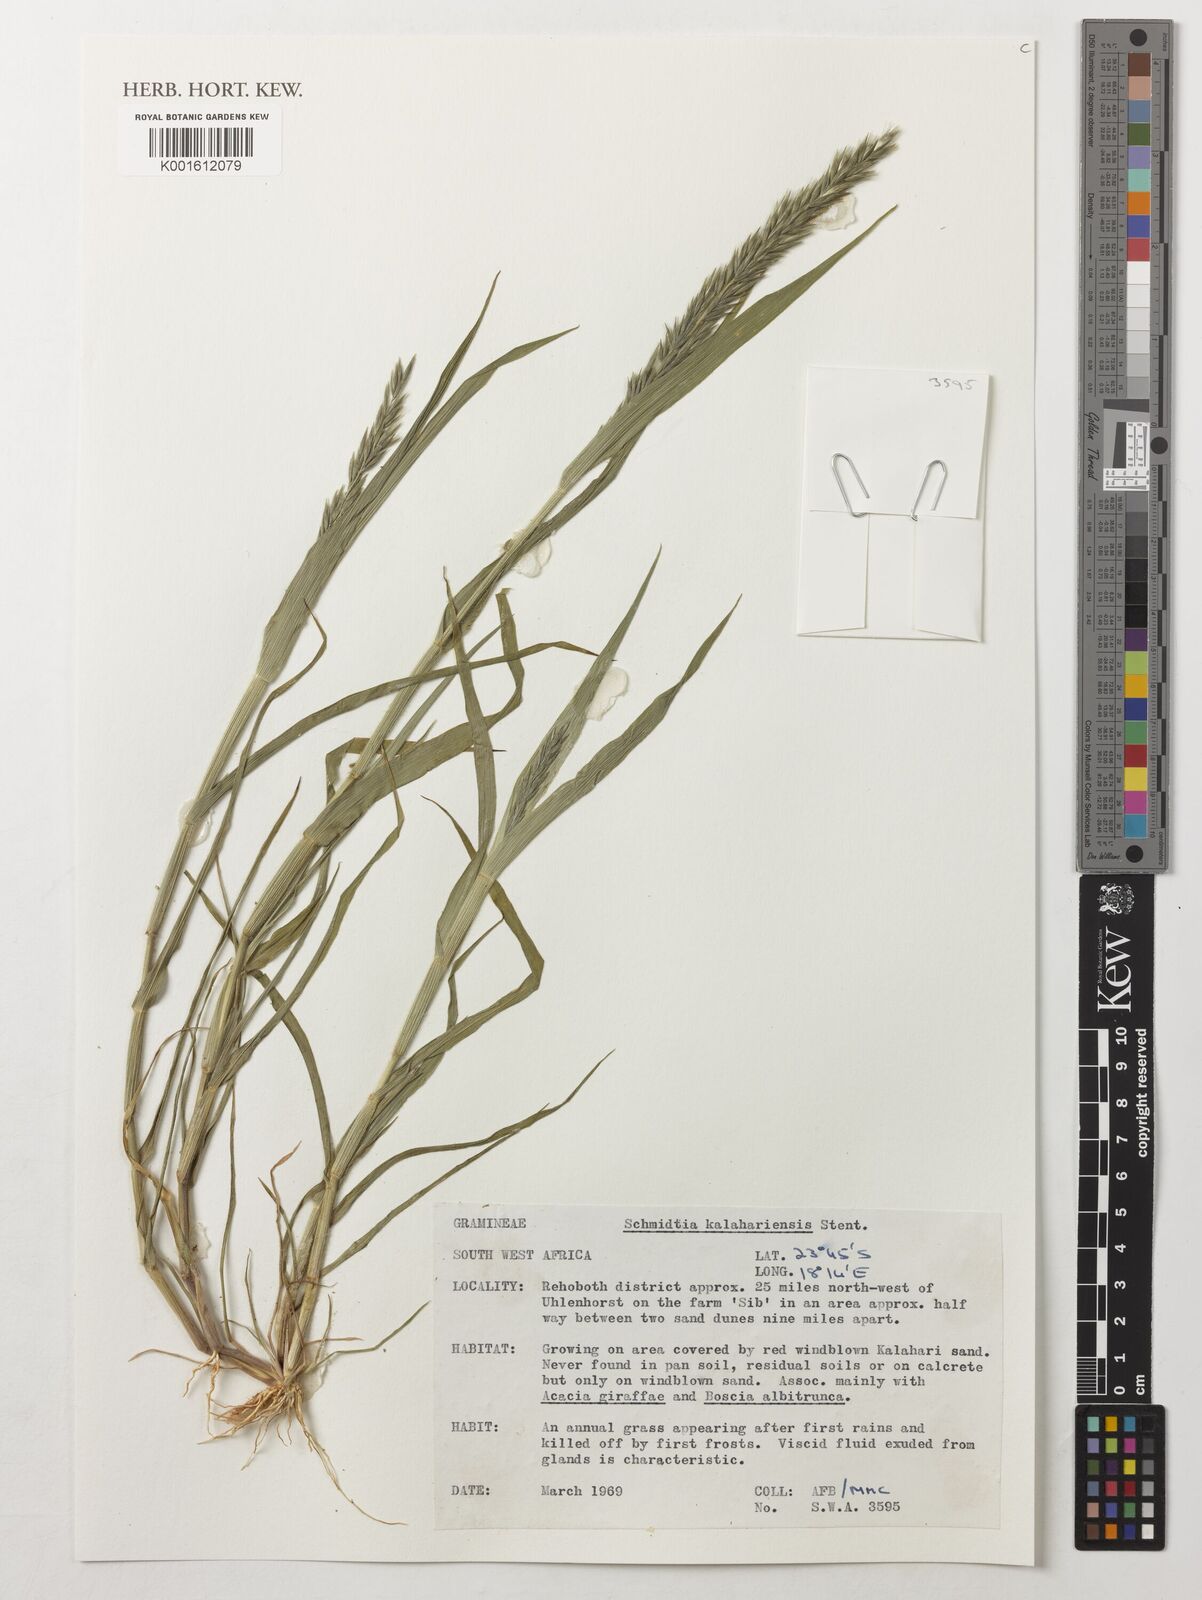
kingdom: Plantae
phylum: Tracheophyta
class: Liliopsida
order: Poales
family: Poaceae
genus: Schmidtia
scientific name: Schmidtia kalahariensis
